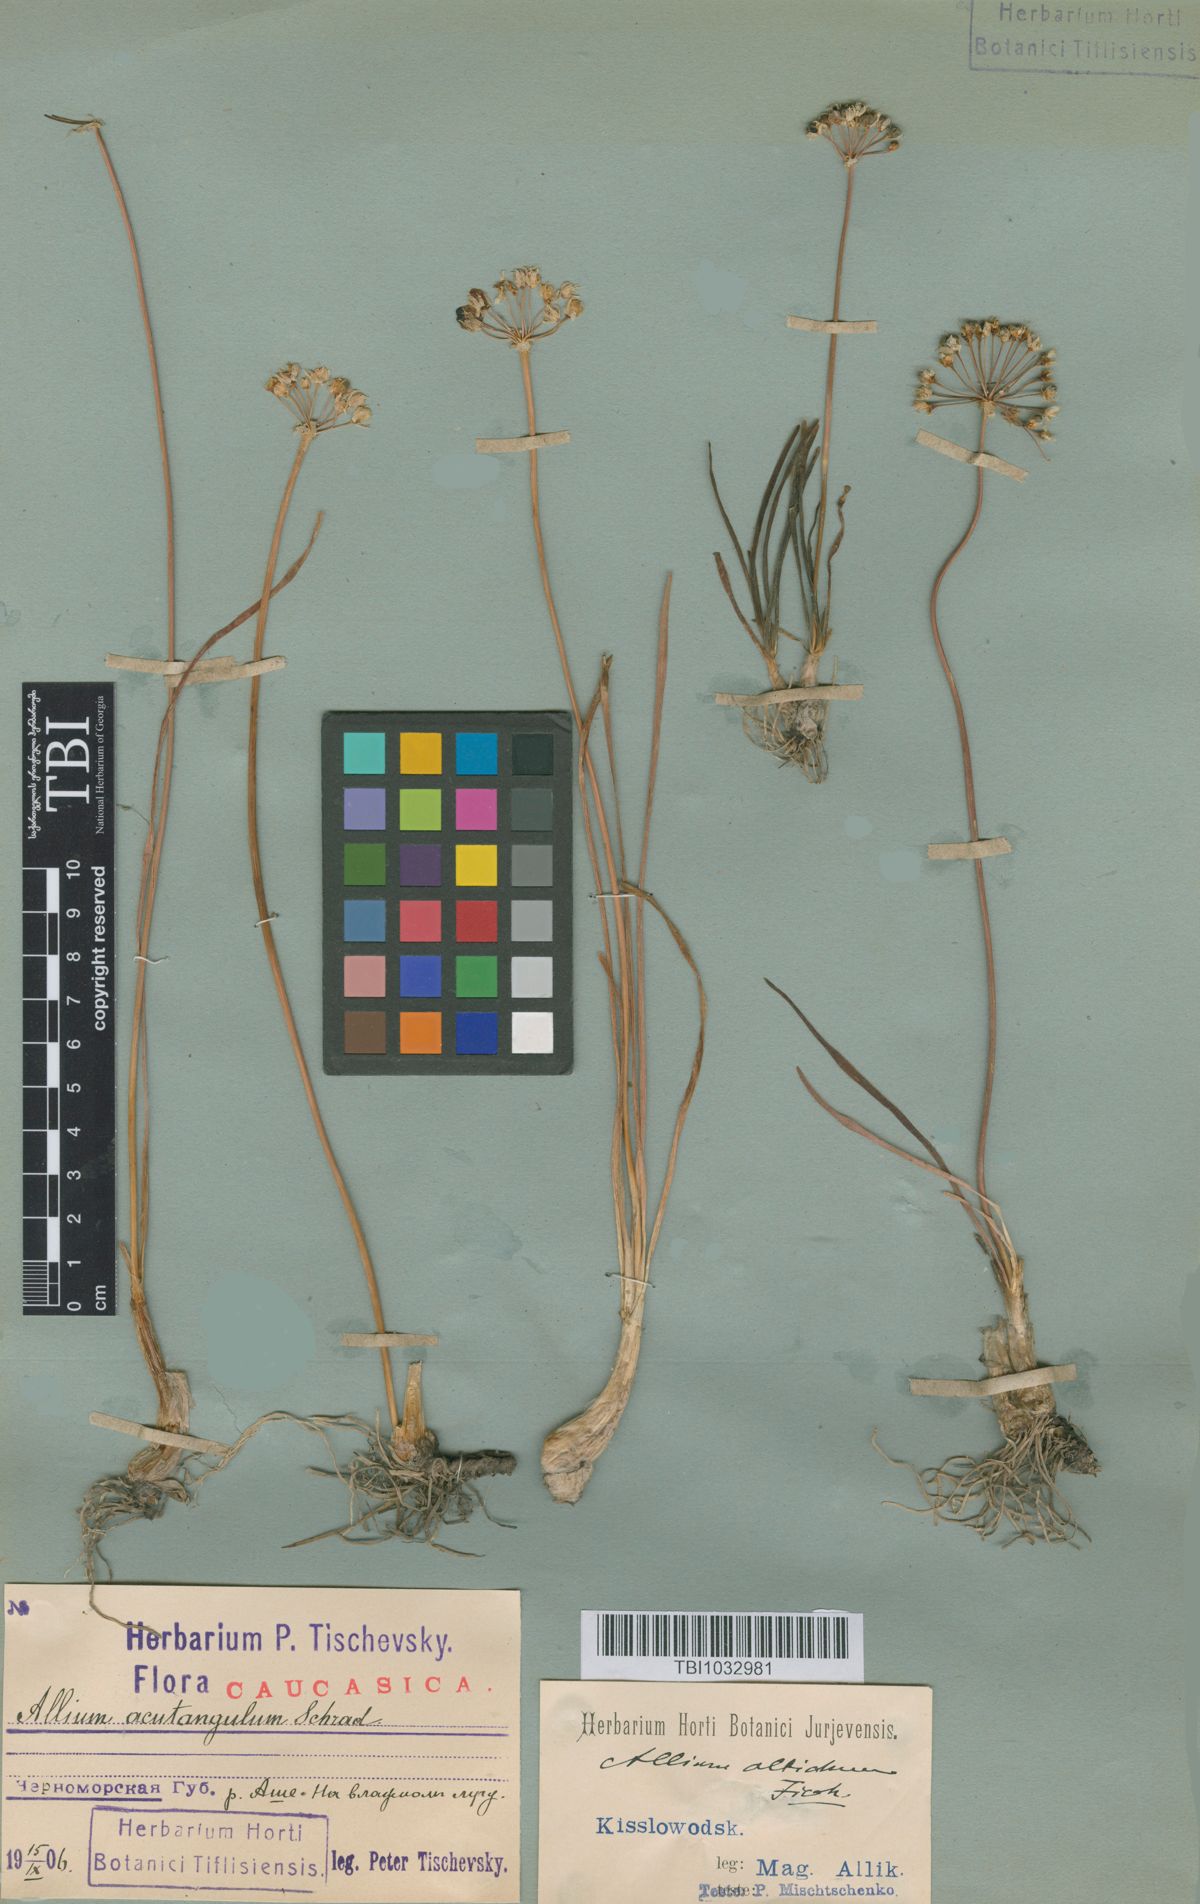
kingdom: Plantae
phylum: Tracheophyta
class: Liliopsida
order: Asparagales
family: Amaryllidaceae
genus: Allium
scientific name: Allium denudatum
